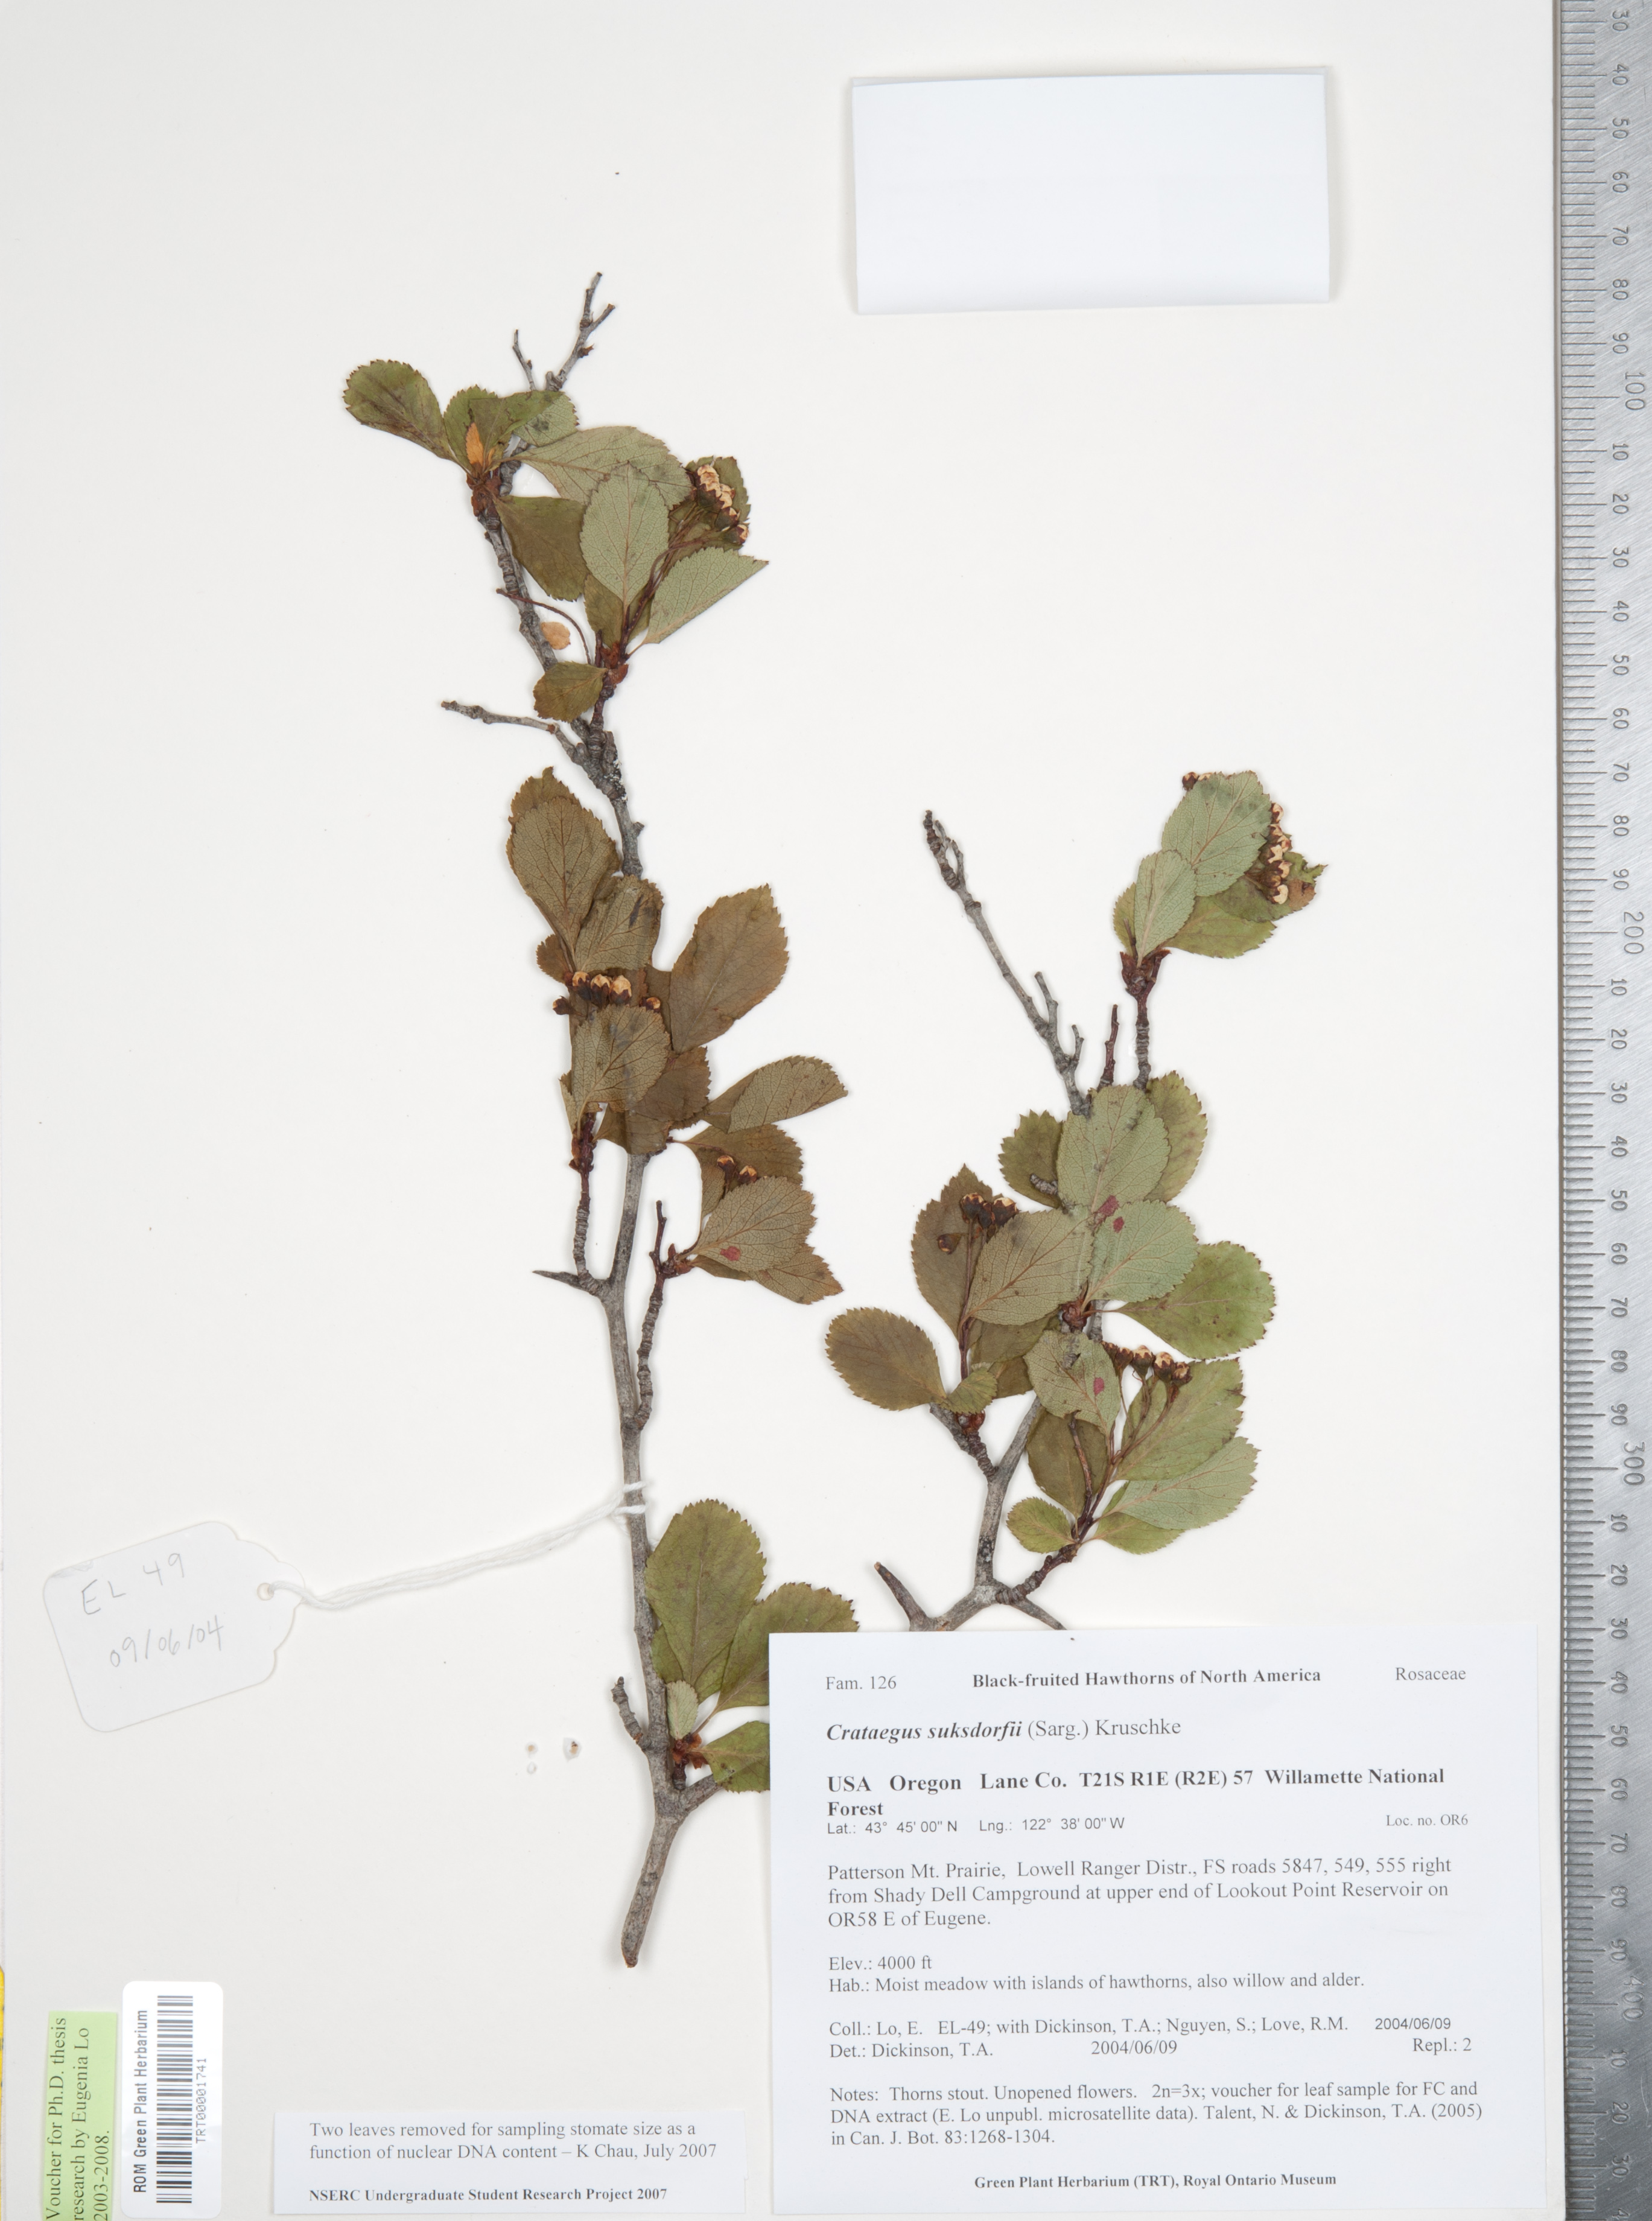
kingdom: Plantae
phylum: Tracheophyta
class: Magnoliopsida
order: Rosales
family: Rosaceae
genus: Crataegus
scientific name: Crataegus gaylussacia
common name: Huckleberry hawthorn
